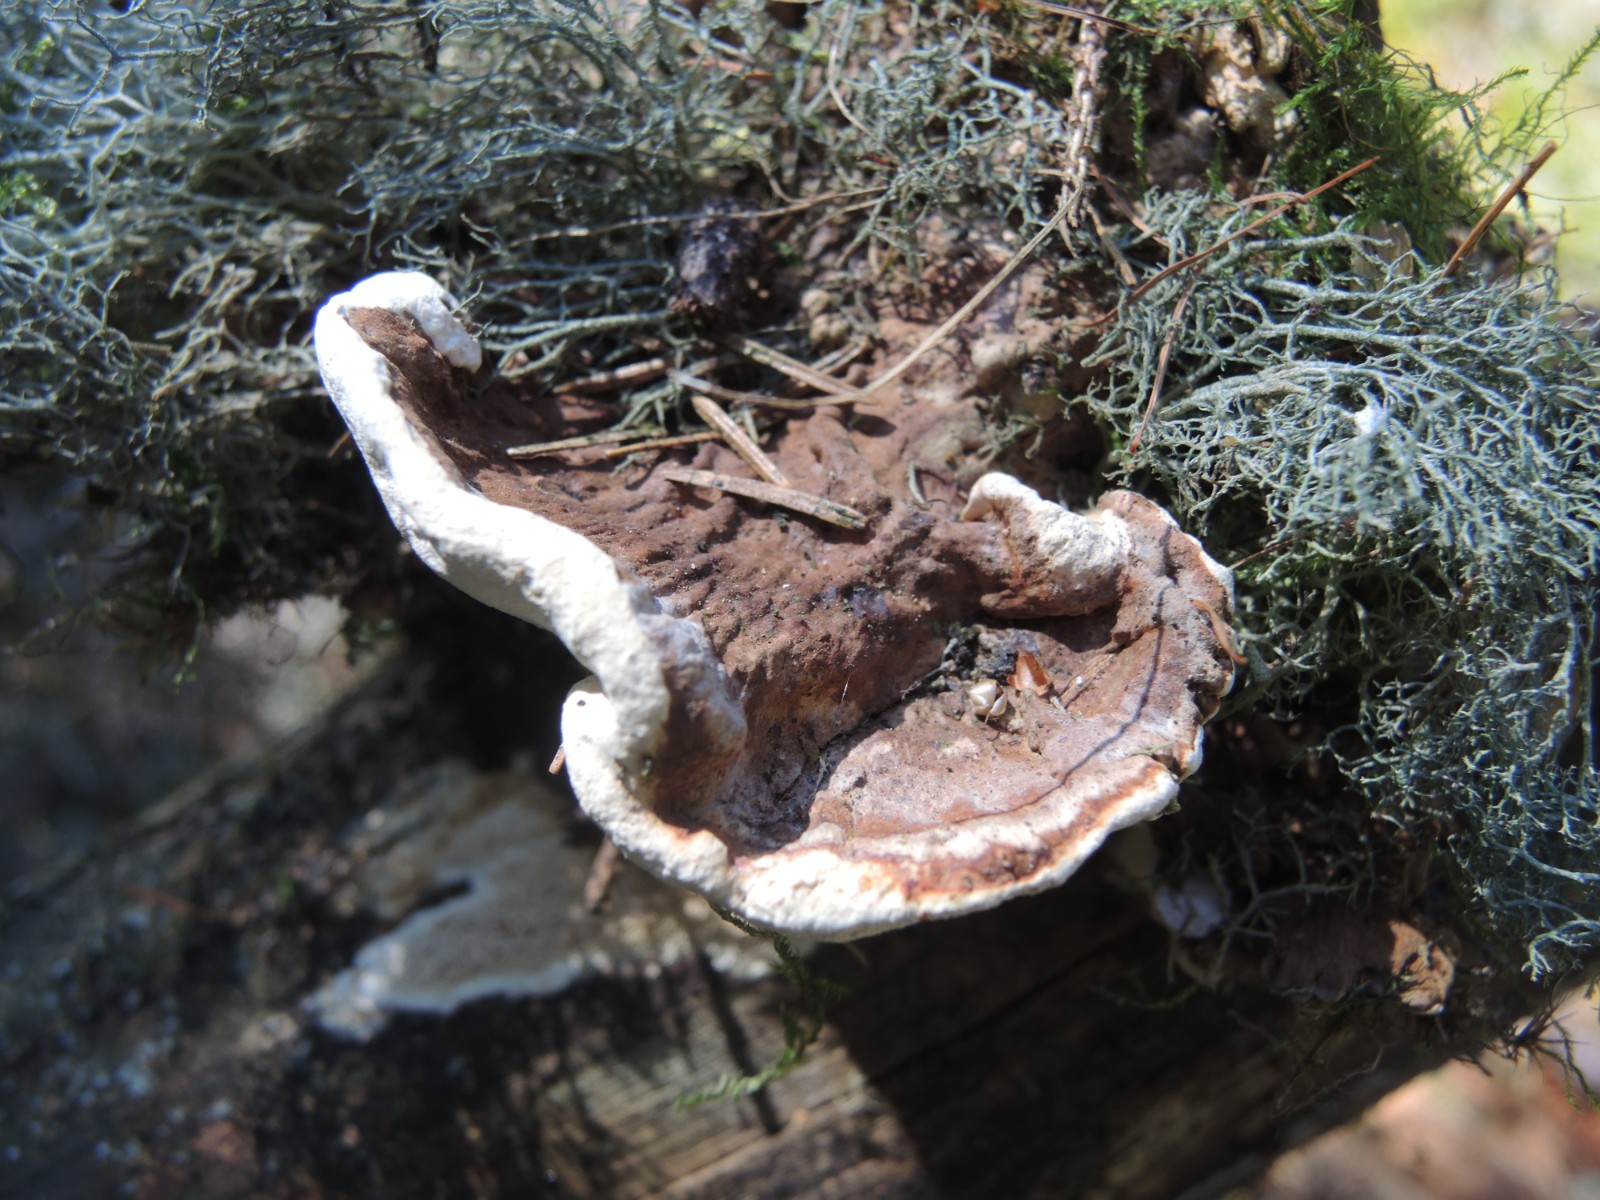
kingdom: Fungi
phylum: Basidiomycota
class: Agaricomycetes
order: Russulales
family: Bondarzewiaceae
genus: Heterobasidion
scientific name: Heterobasidion annosum
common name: almindelig rodfordærver
